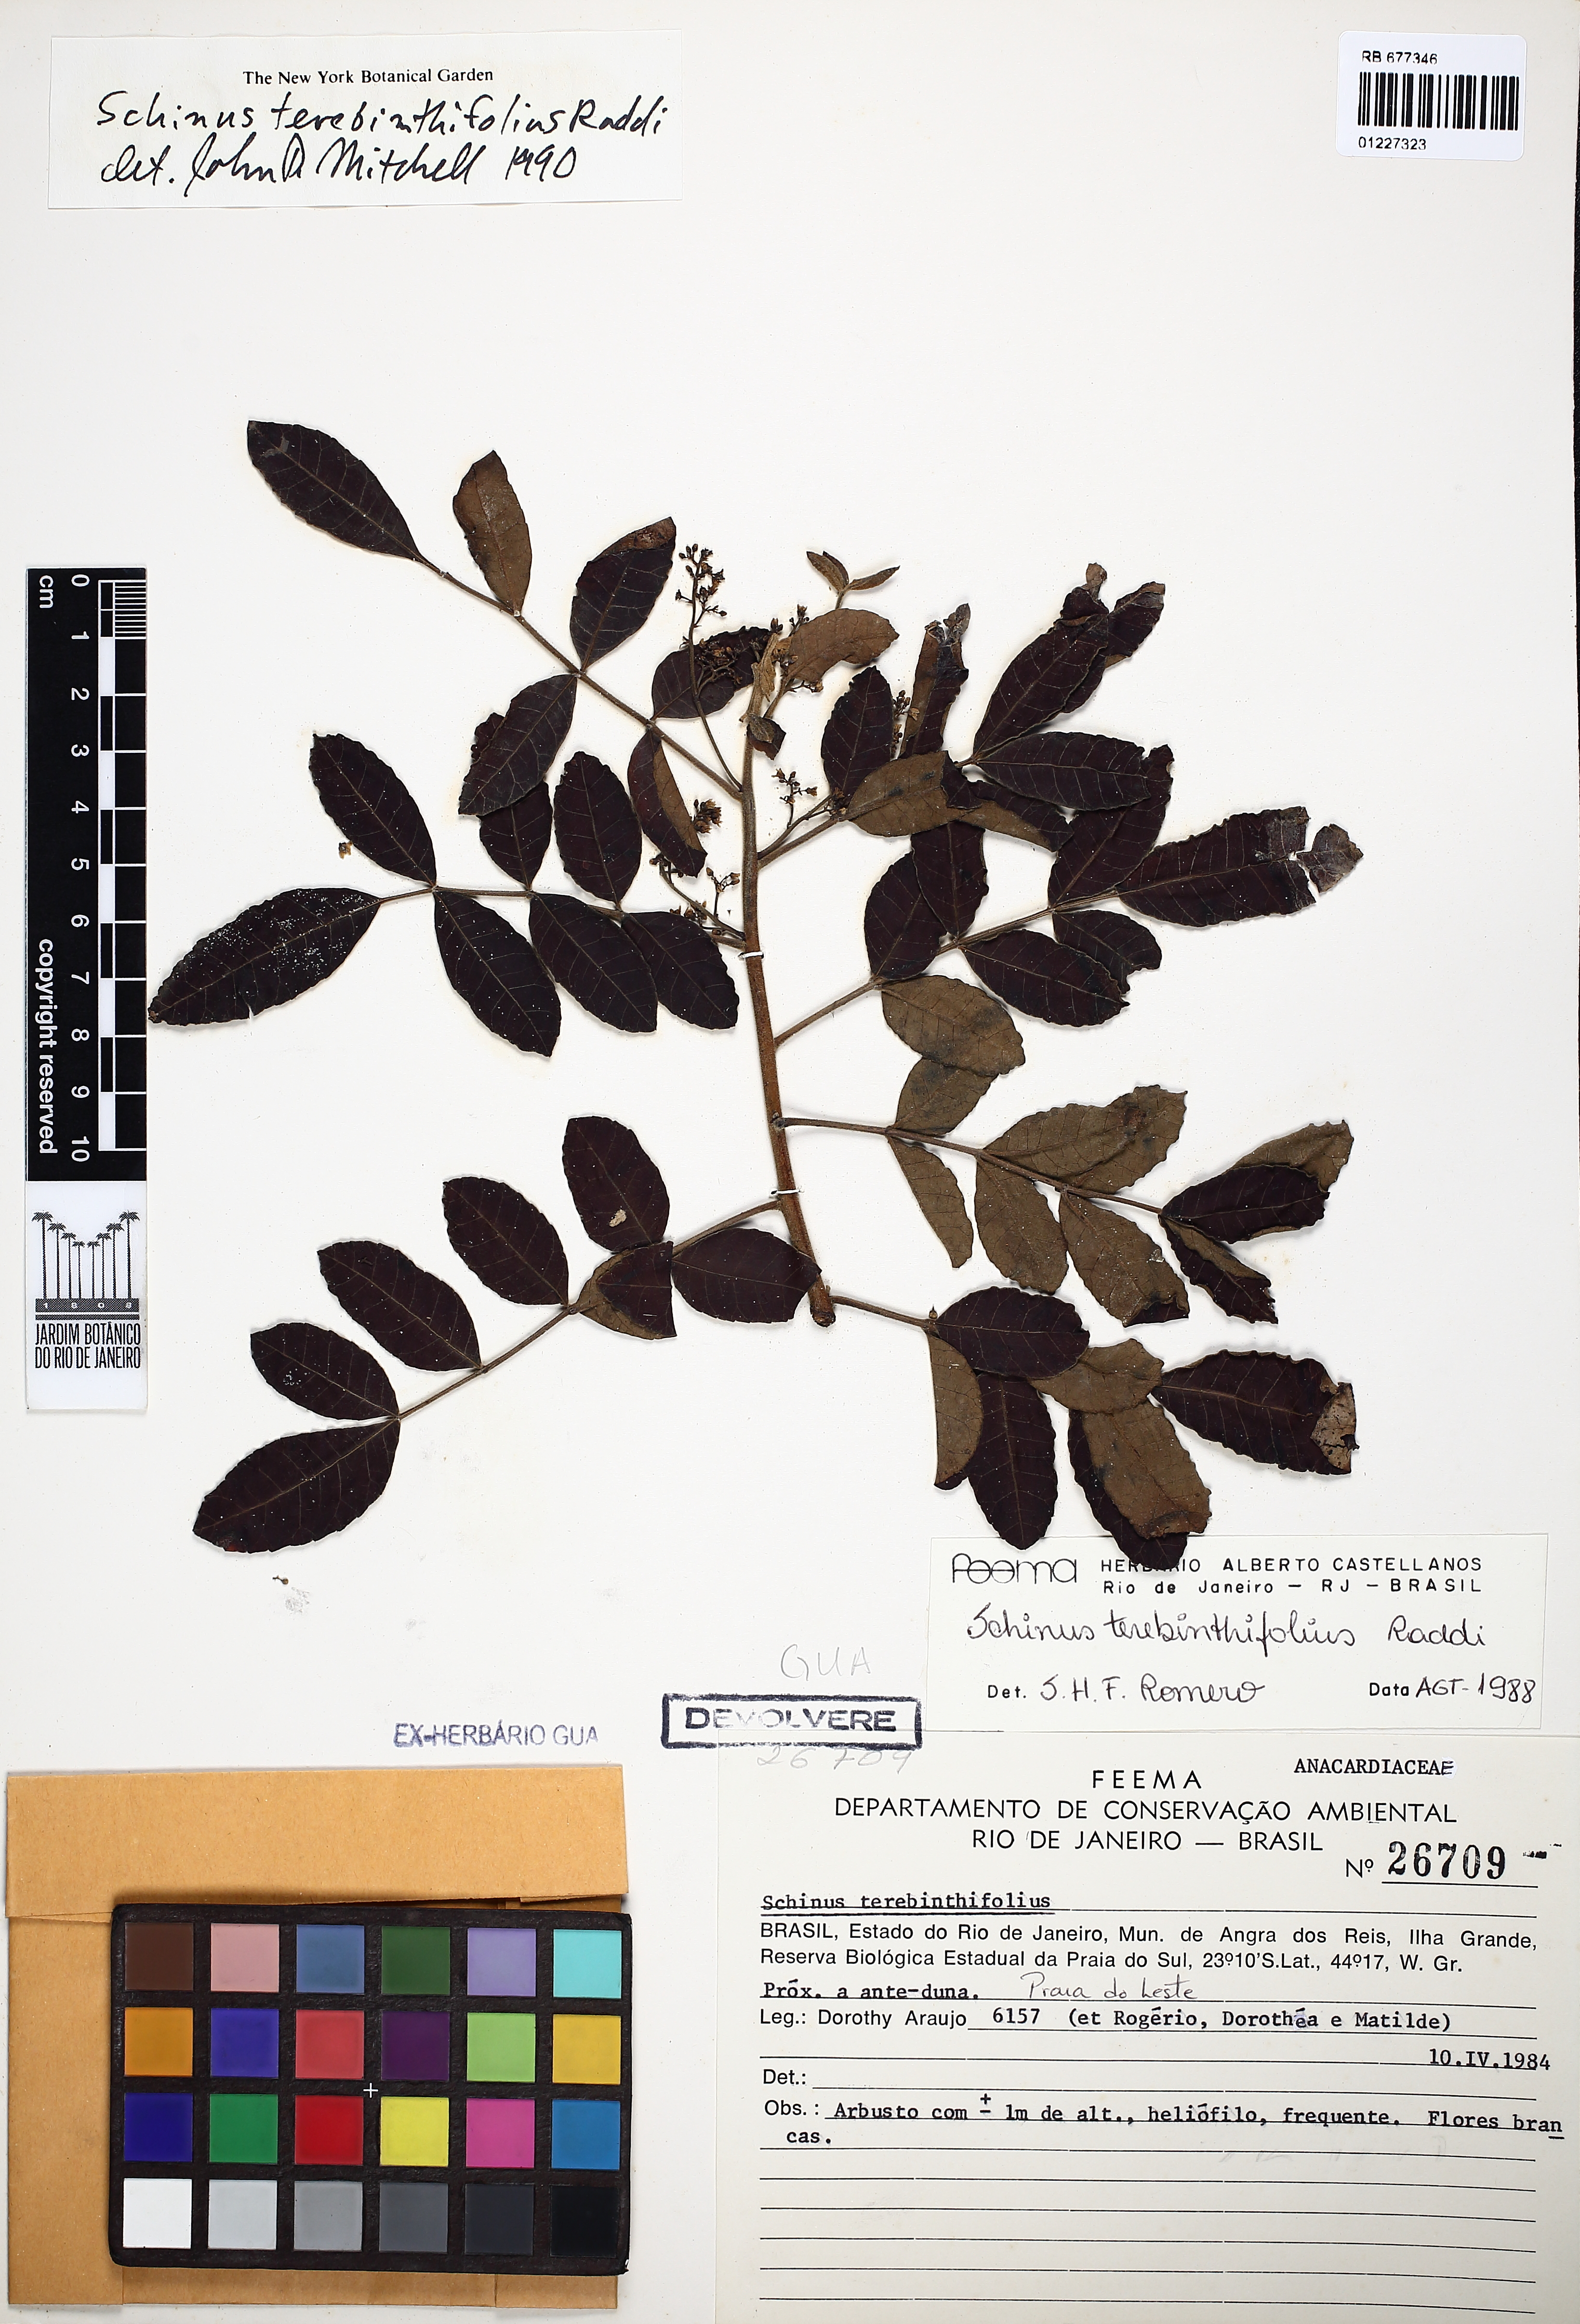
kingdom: Plantae
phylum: Tracheophyta
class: Magnoliopsida
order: Sapindales
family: Anacardiaceae
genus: Schinus
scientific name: Schinus terebinthifolia
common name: Brazilian peppertree
